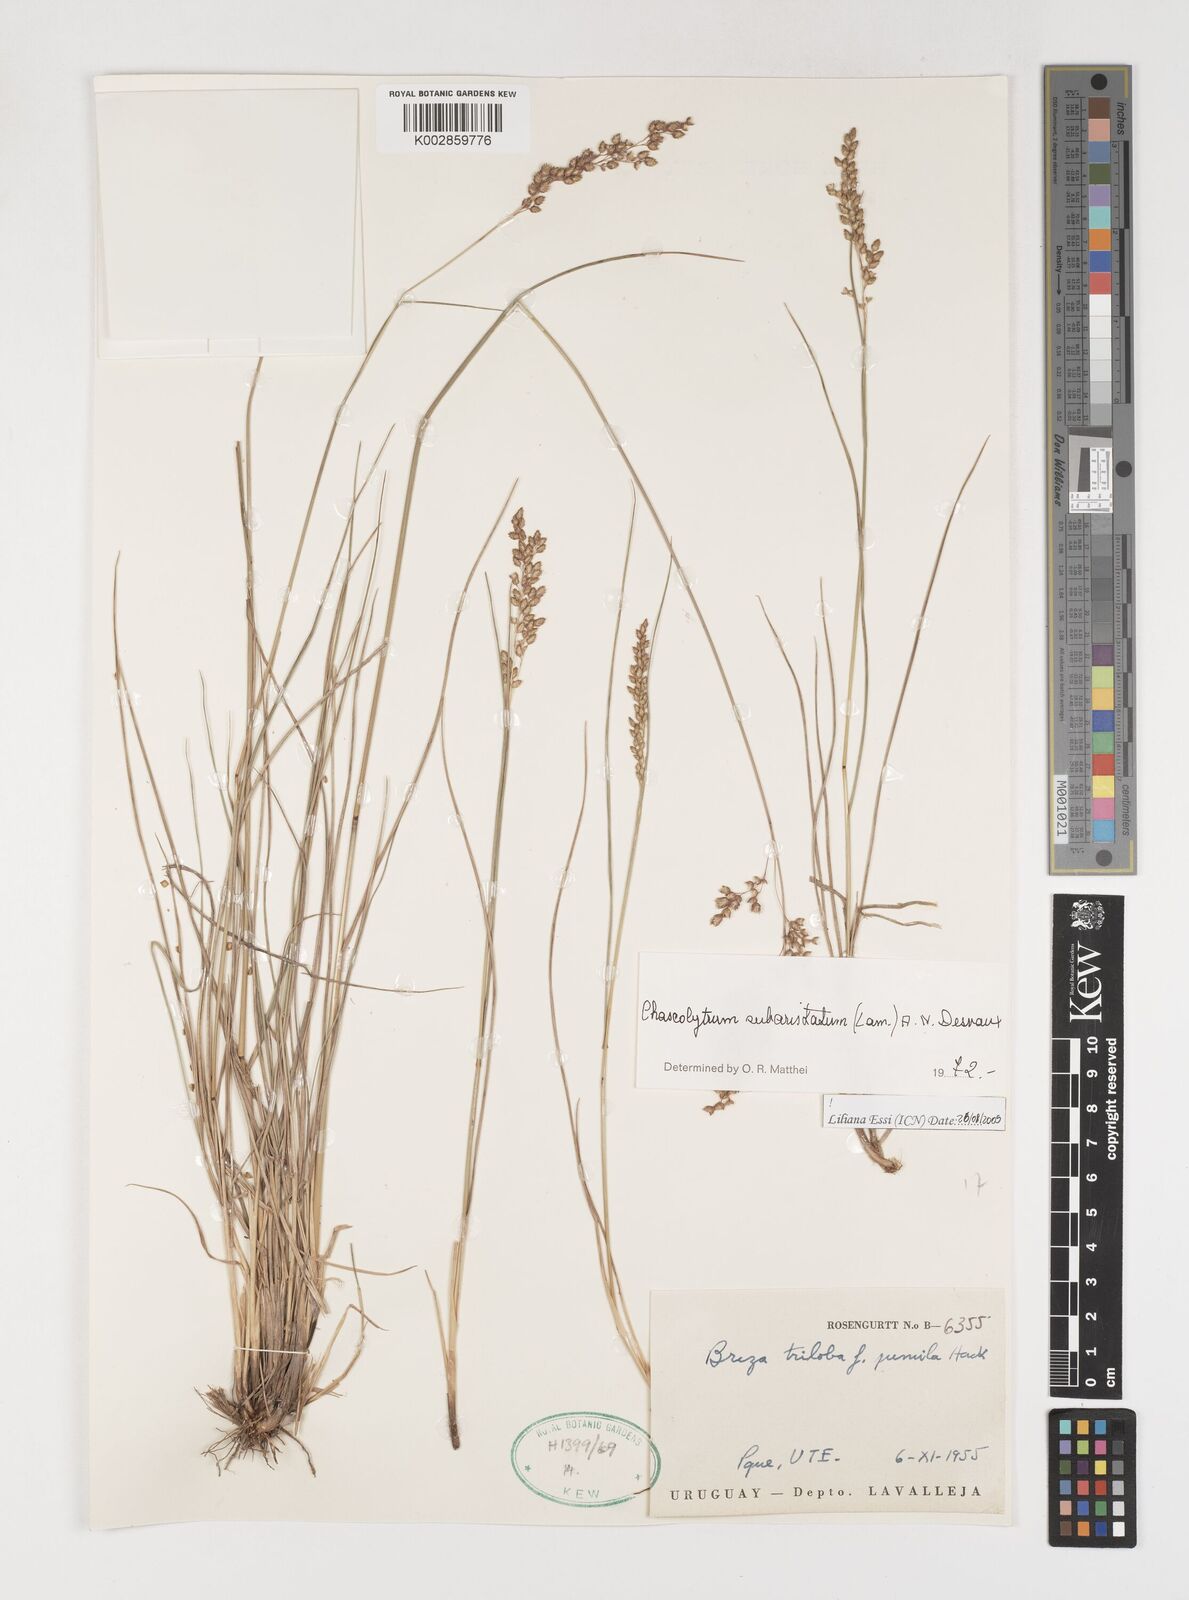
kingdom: Plantae
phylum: Tracheophyta
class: Liliopsida
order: Poales
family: Poaceae
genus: Chascolytrum
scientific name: Chascolytrum subaristatum
